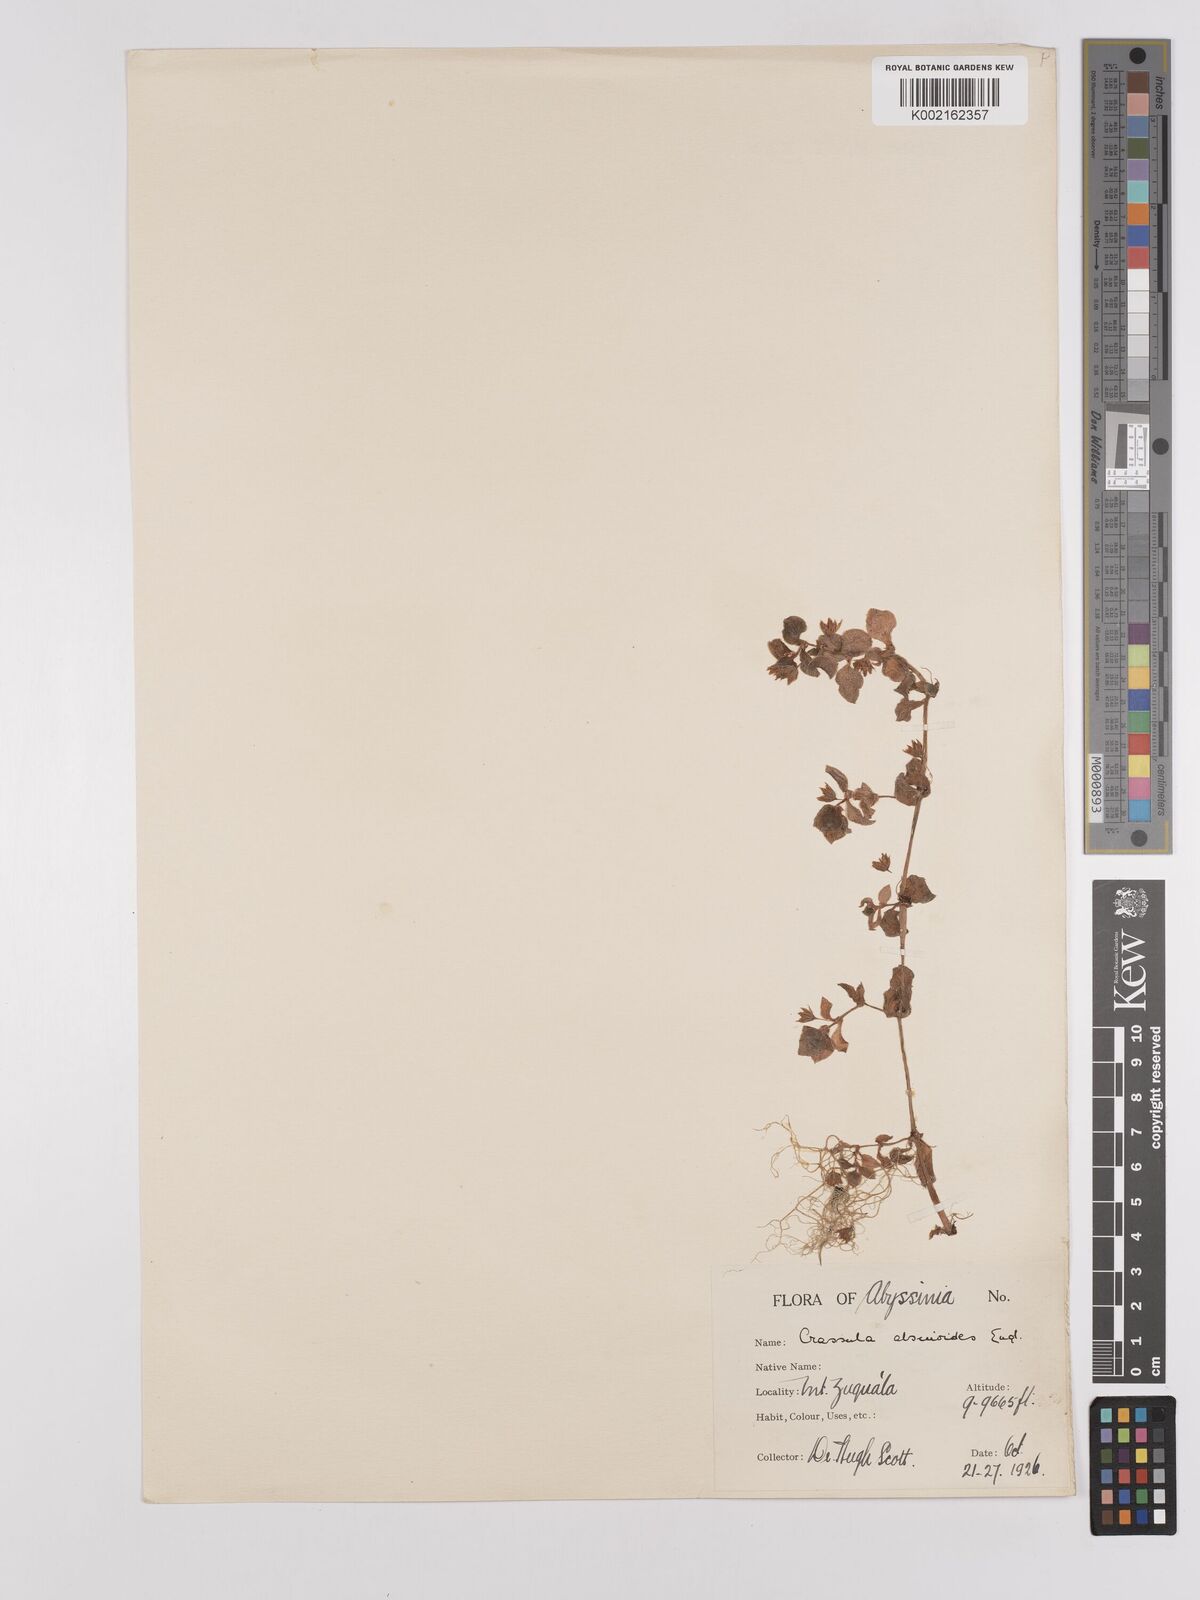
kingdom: Plantae
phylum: Tracheophyta
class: Magnoliopsida
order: Saxifragales
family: Crassulaceae
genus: Crassula
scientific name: Crassula alsinoides
